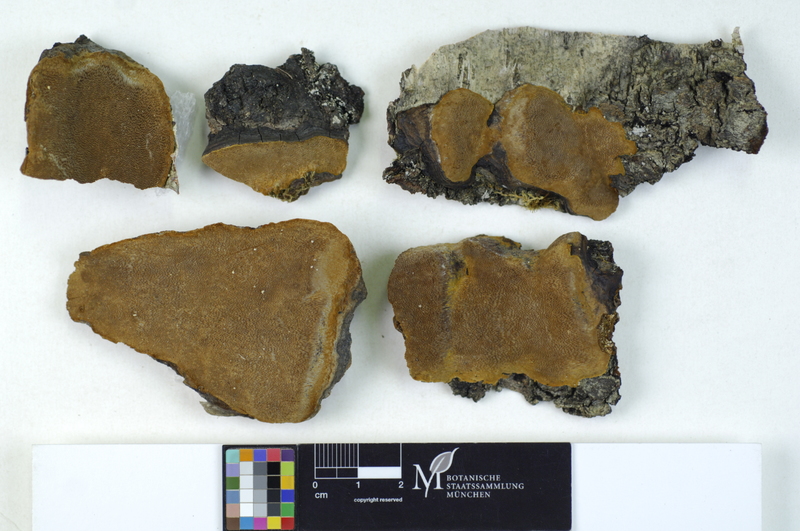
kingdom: Plantae
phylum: Tracheophyta
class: Magnoliopsida
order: Fagales
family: Betulaceae
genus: Betula
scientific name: Betula
